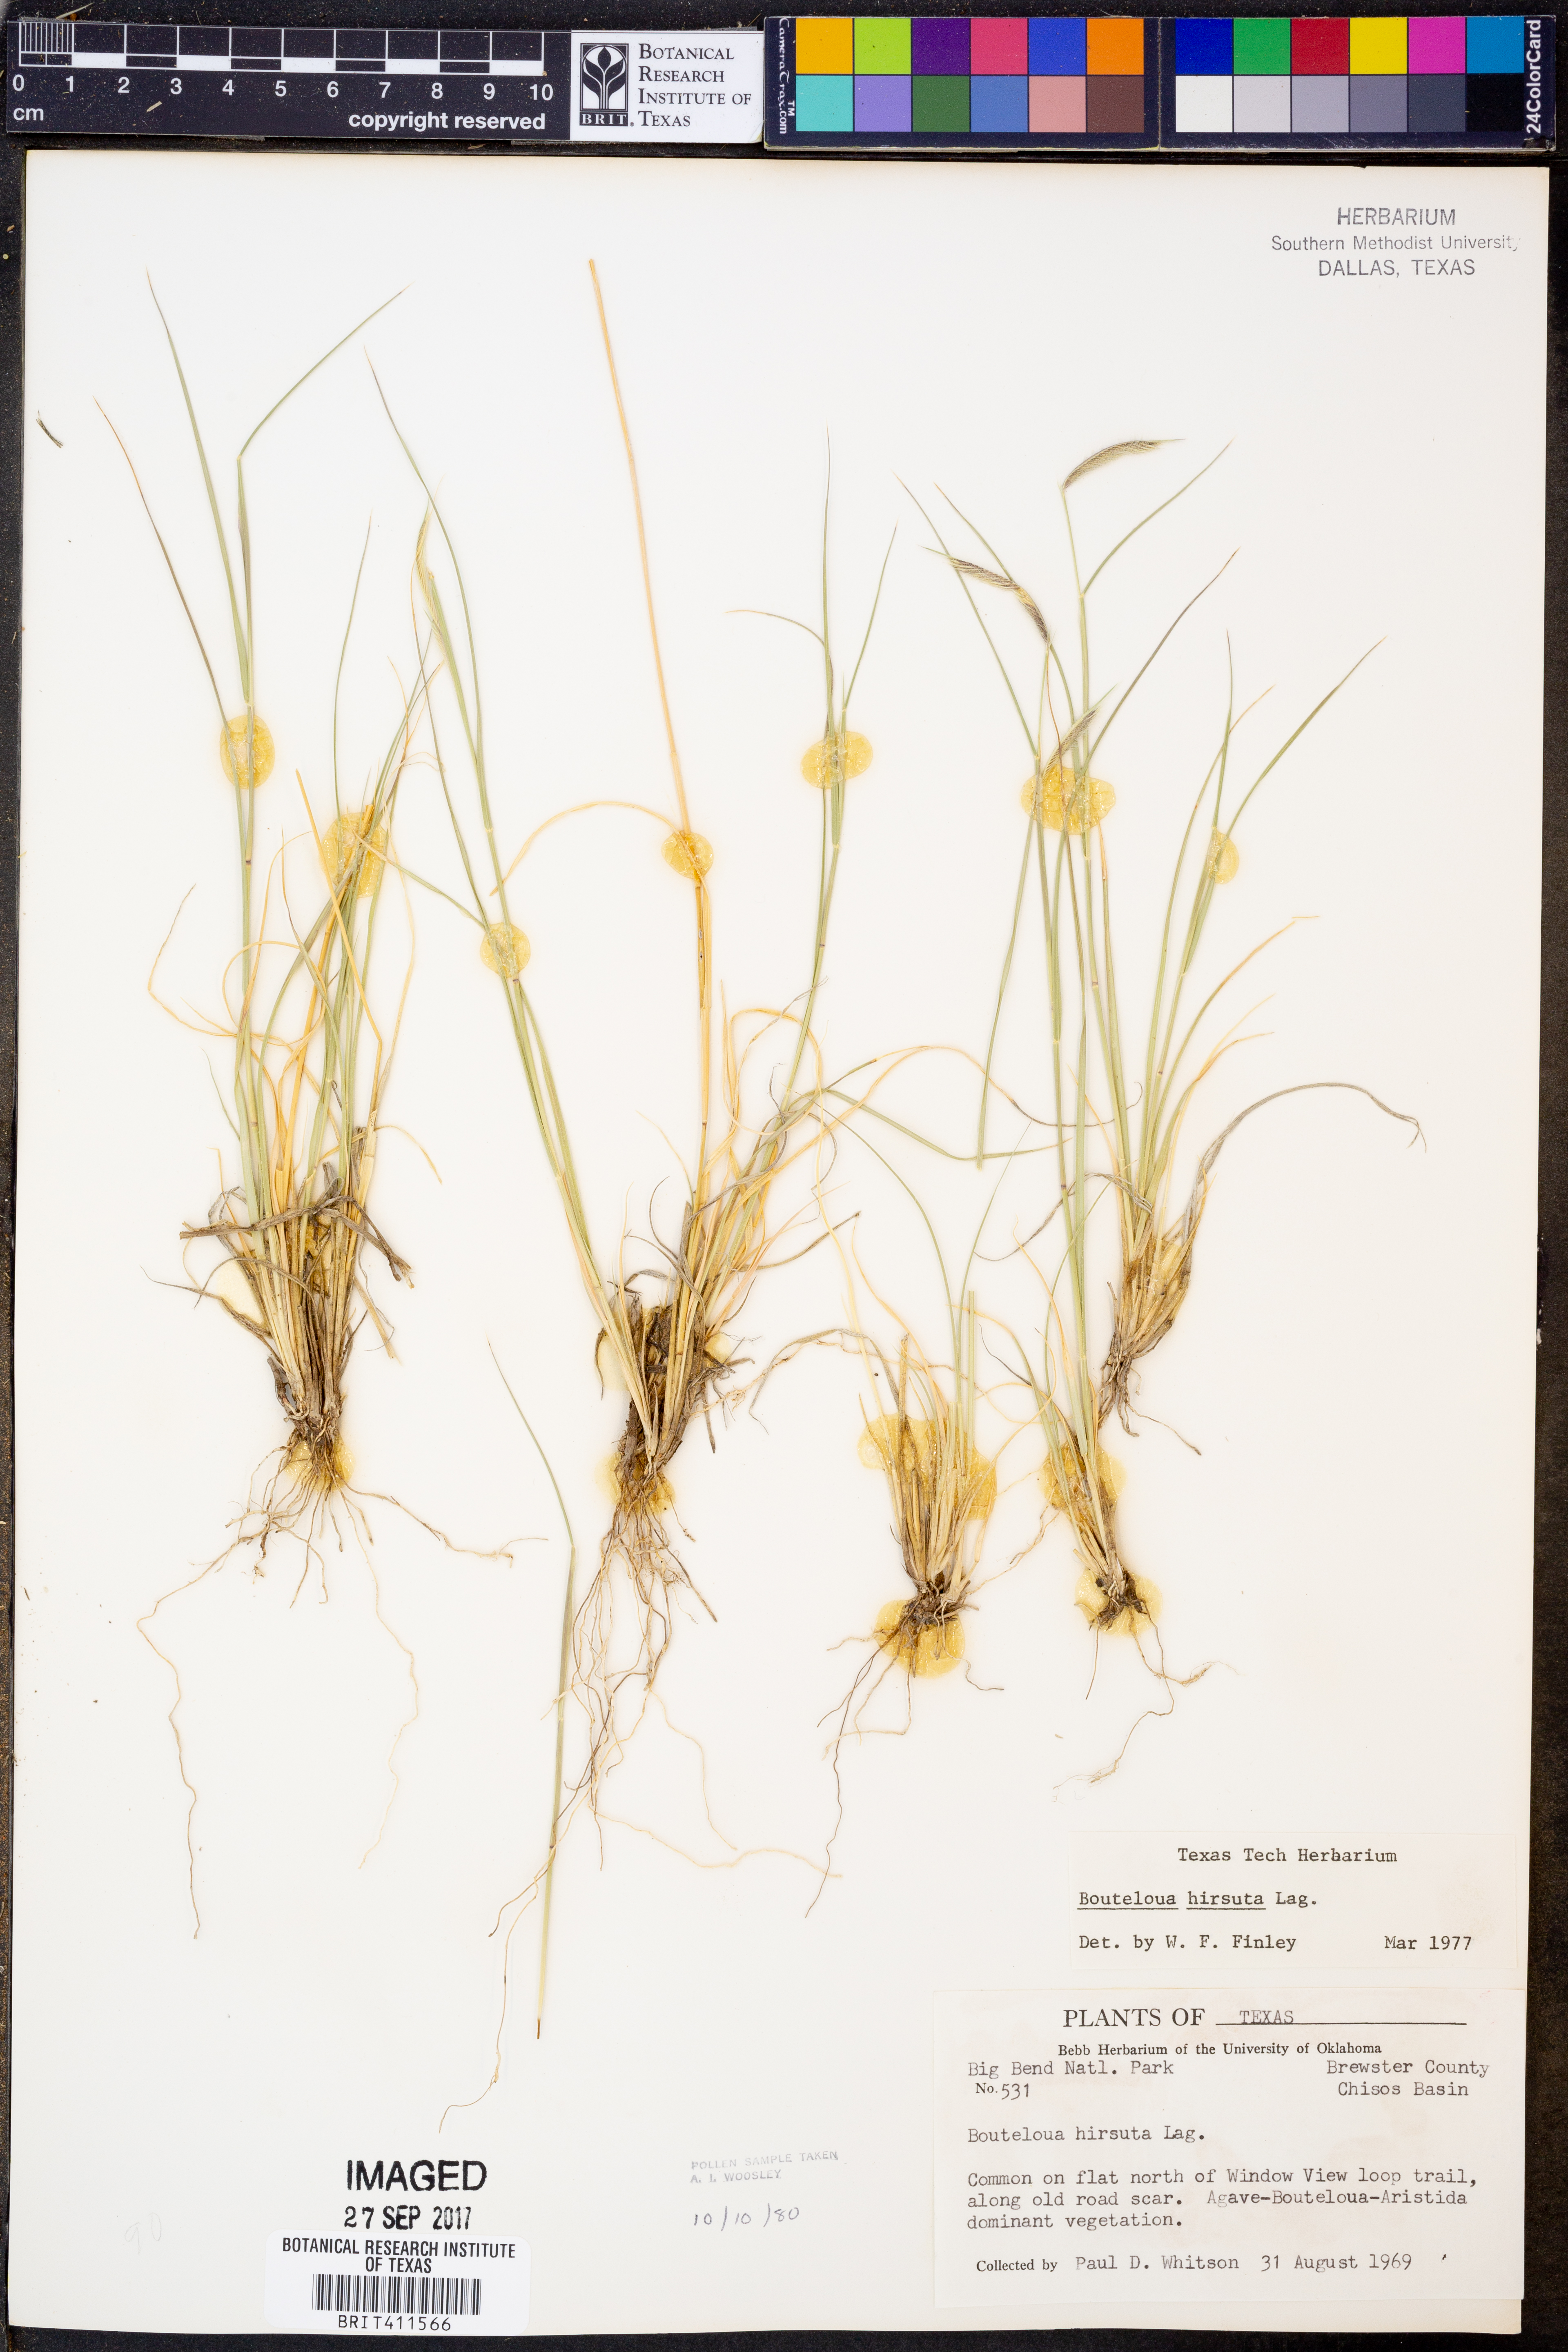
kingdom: Plantae
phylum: Tracheophyta
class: Liliopsida
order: Poales
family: Poaceae
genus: Bouteloua
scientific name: Bouteloua hirsuta
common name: Hairy grama
